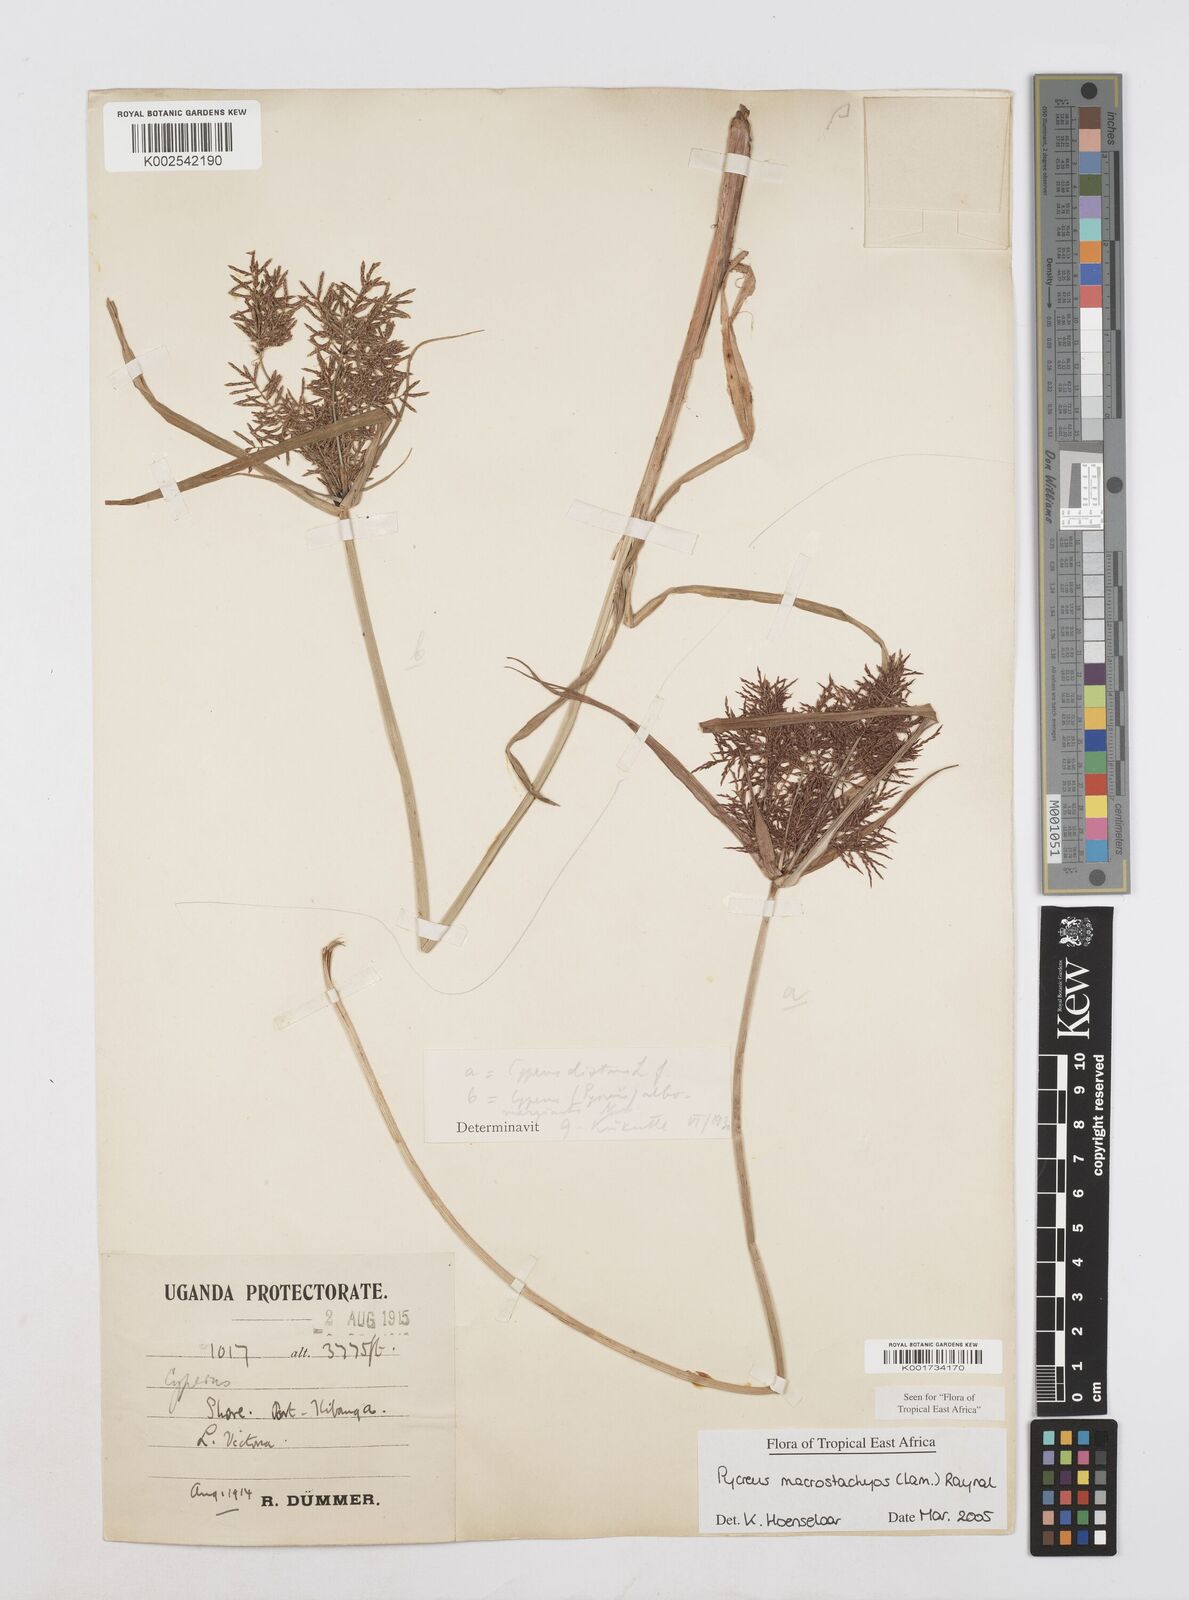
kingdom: Plantae
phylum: Tracheophyta
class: Liliopsida
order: Poales
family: Cyperaceae
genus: Cyperus
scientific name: Cyperus macrostachyos
